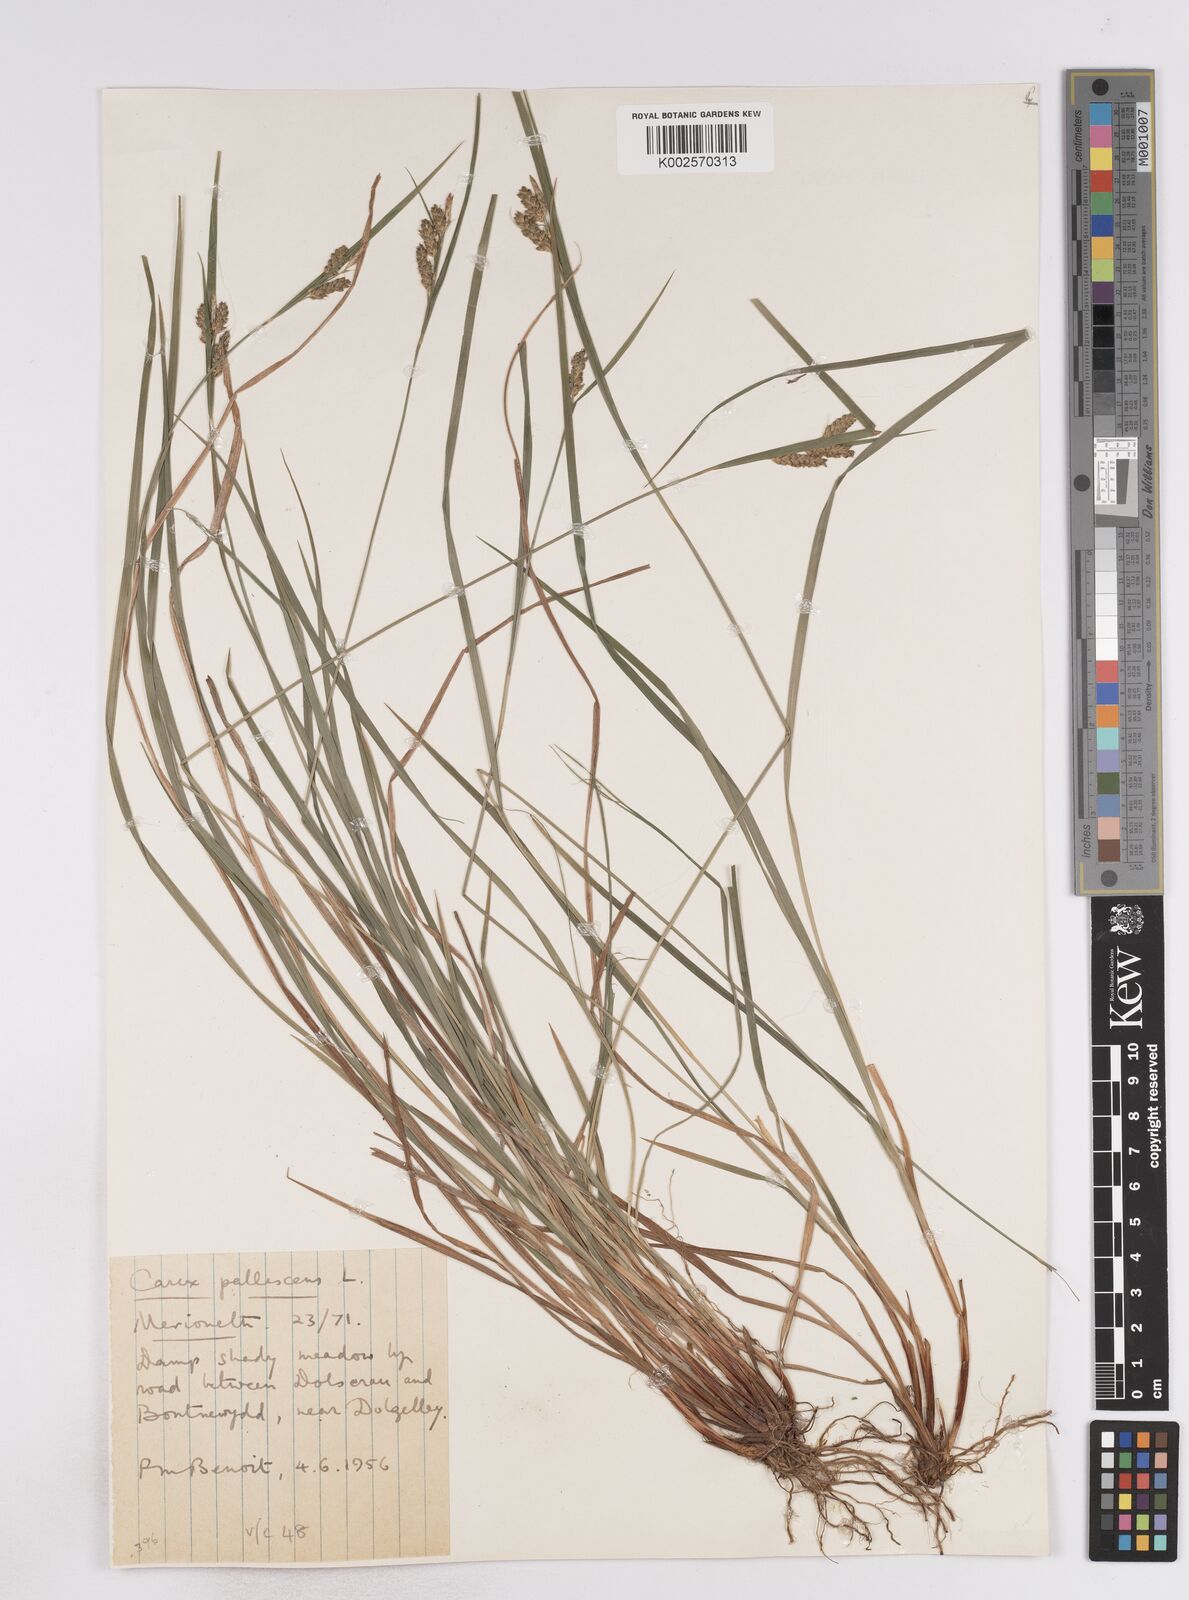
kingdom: Plantae
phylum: Tracheophyta
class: Liliopsida
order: Poales
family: Cyperaceae
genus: Carex
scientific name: Carex pallescens
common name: Pale sedge
